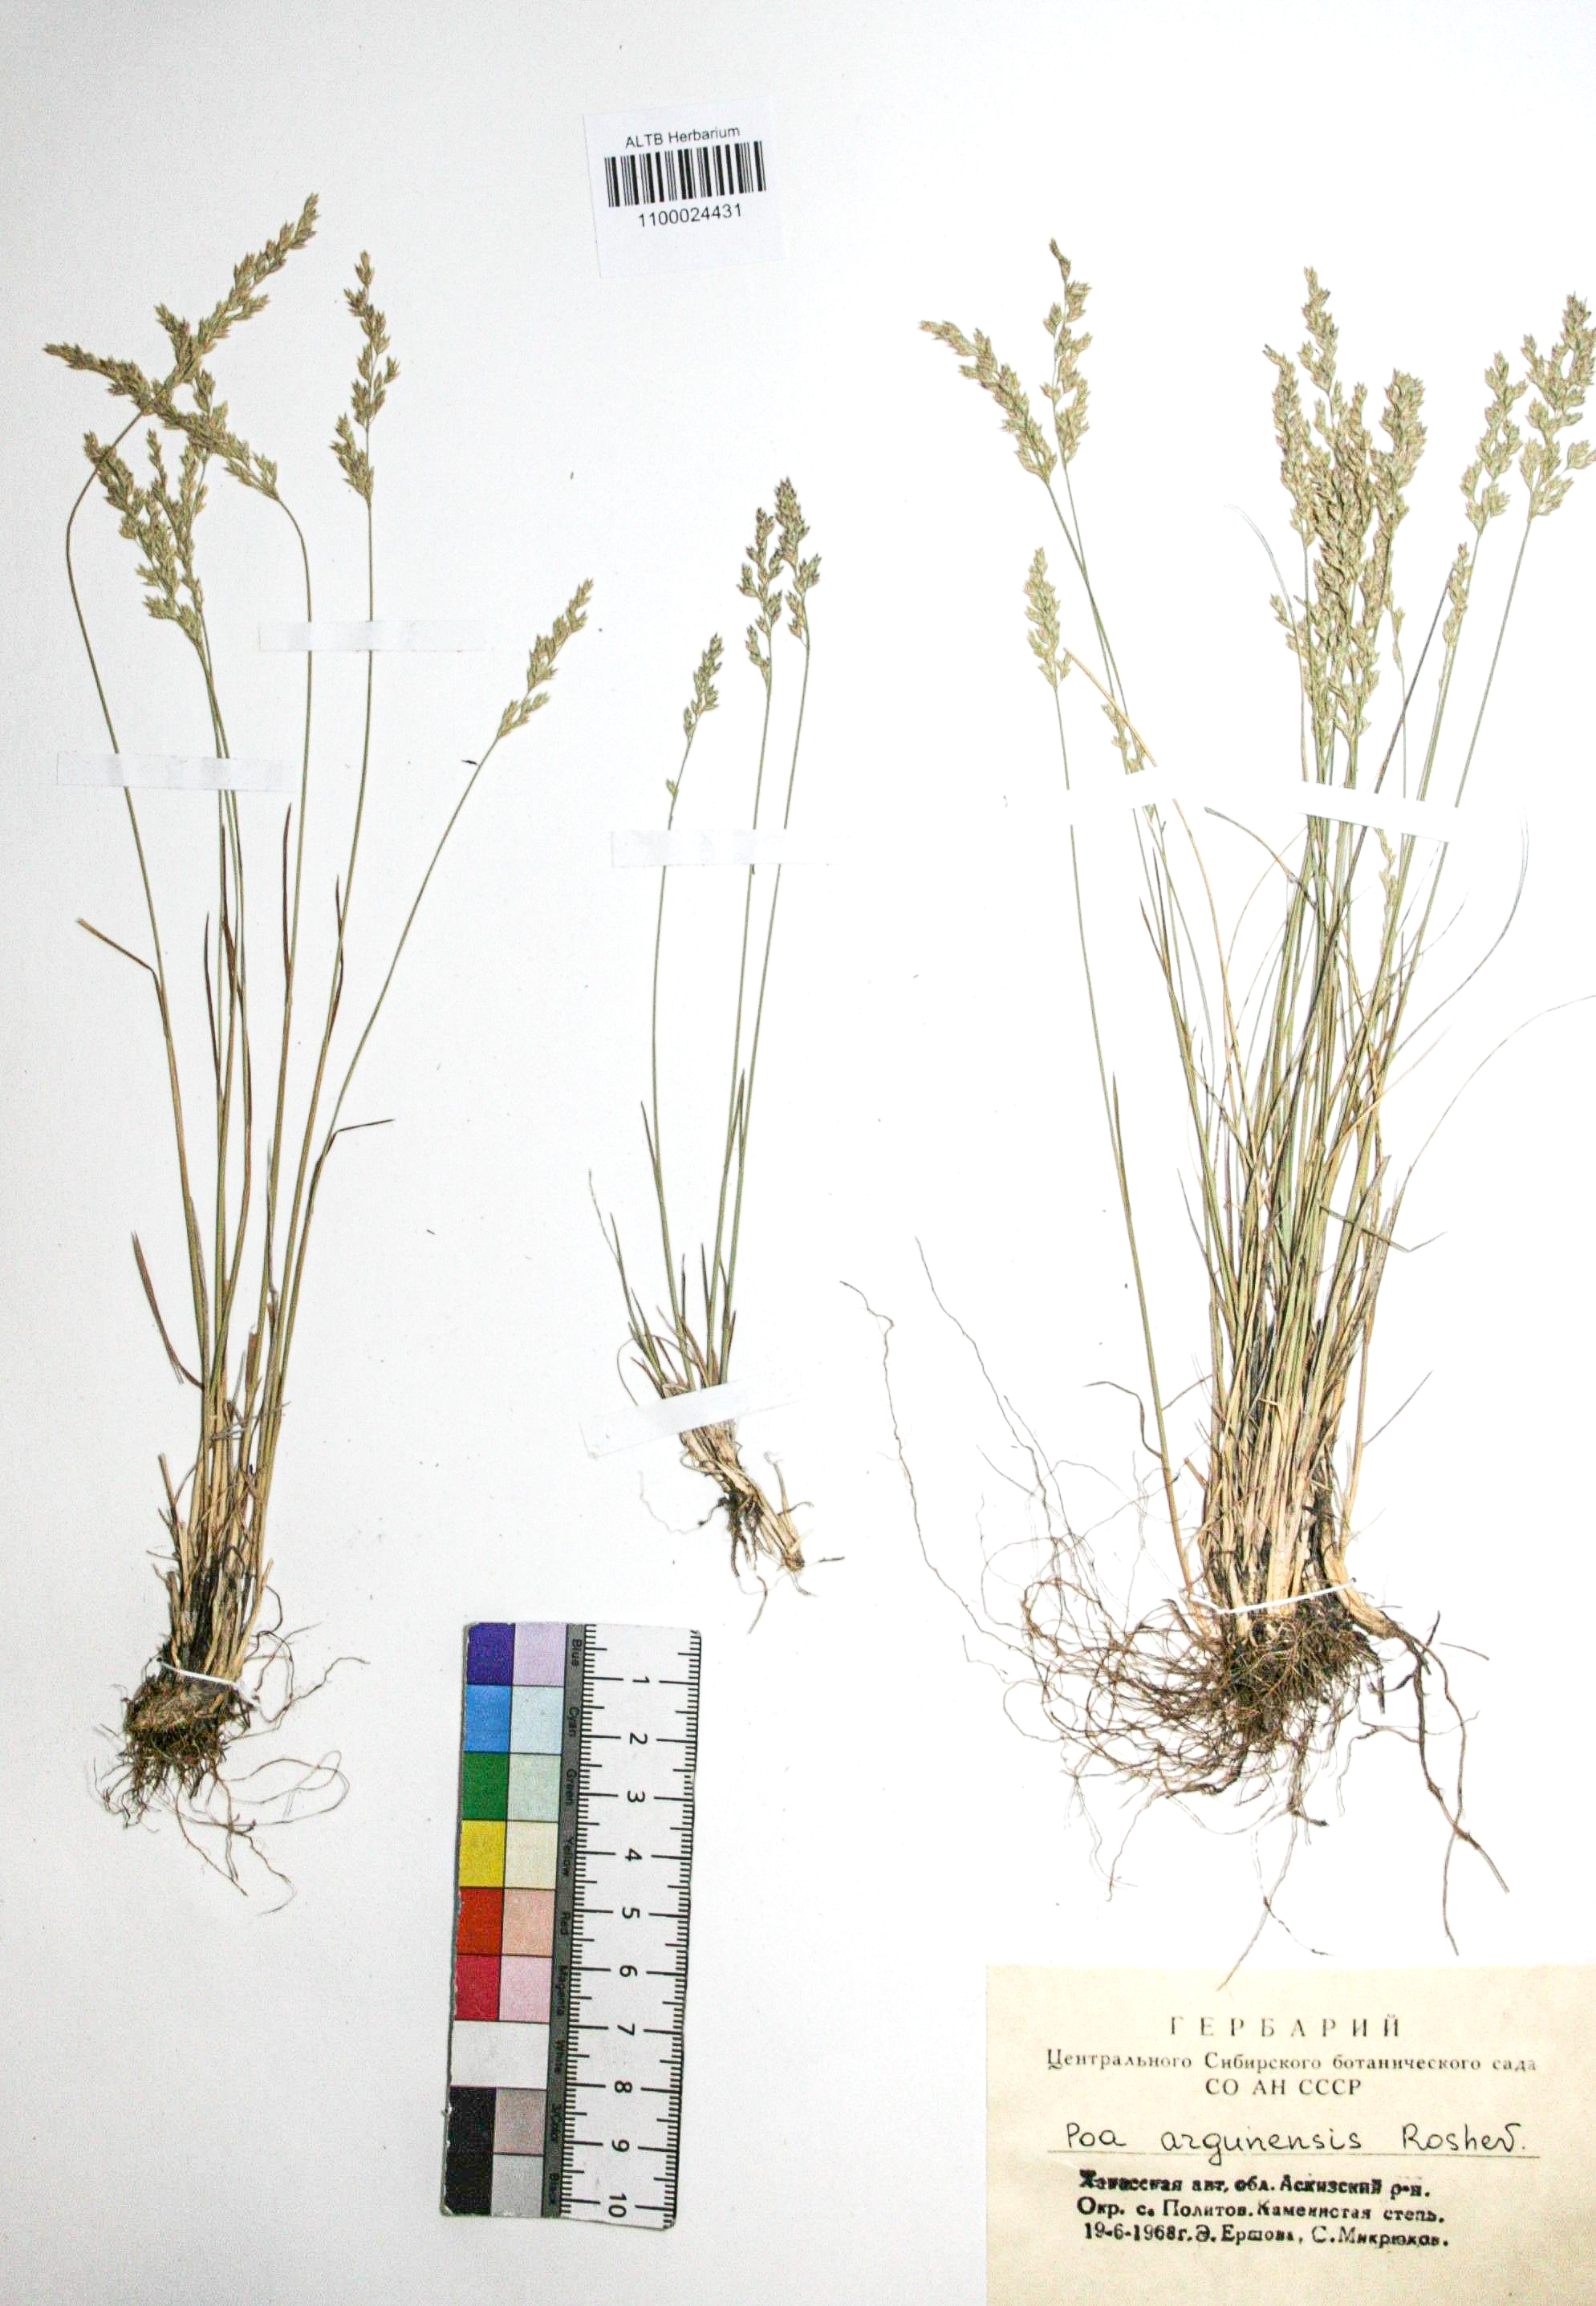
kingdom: Plantae
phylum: Tracheophyta
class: Liliopsida
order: Poales
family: Poaceae
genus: Poa
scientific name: Poa attenuata
